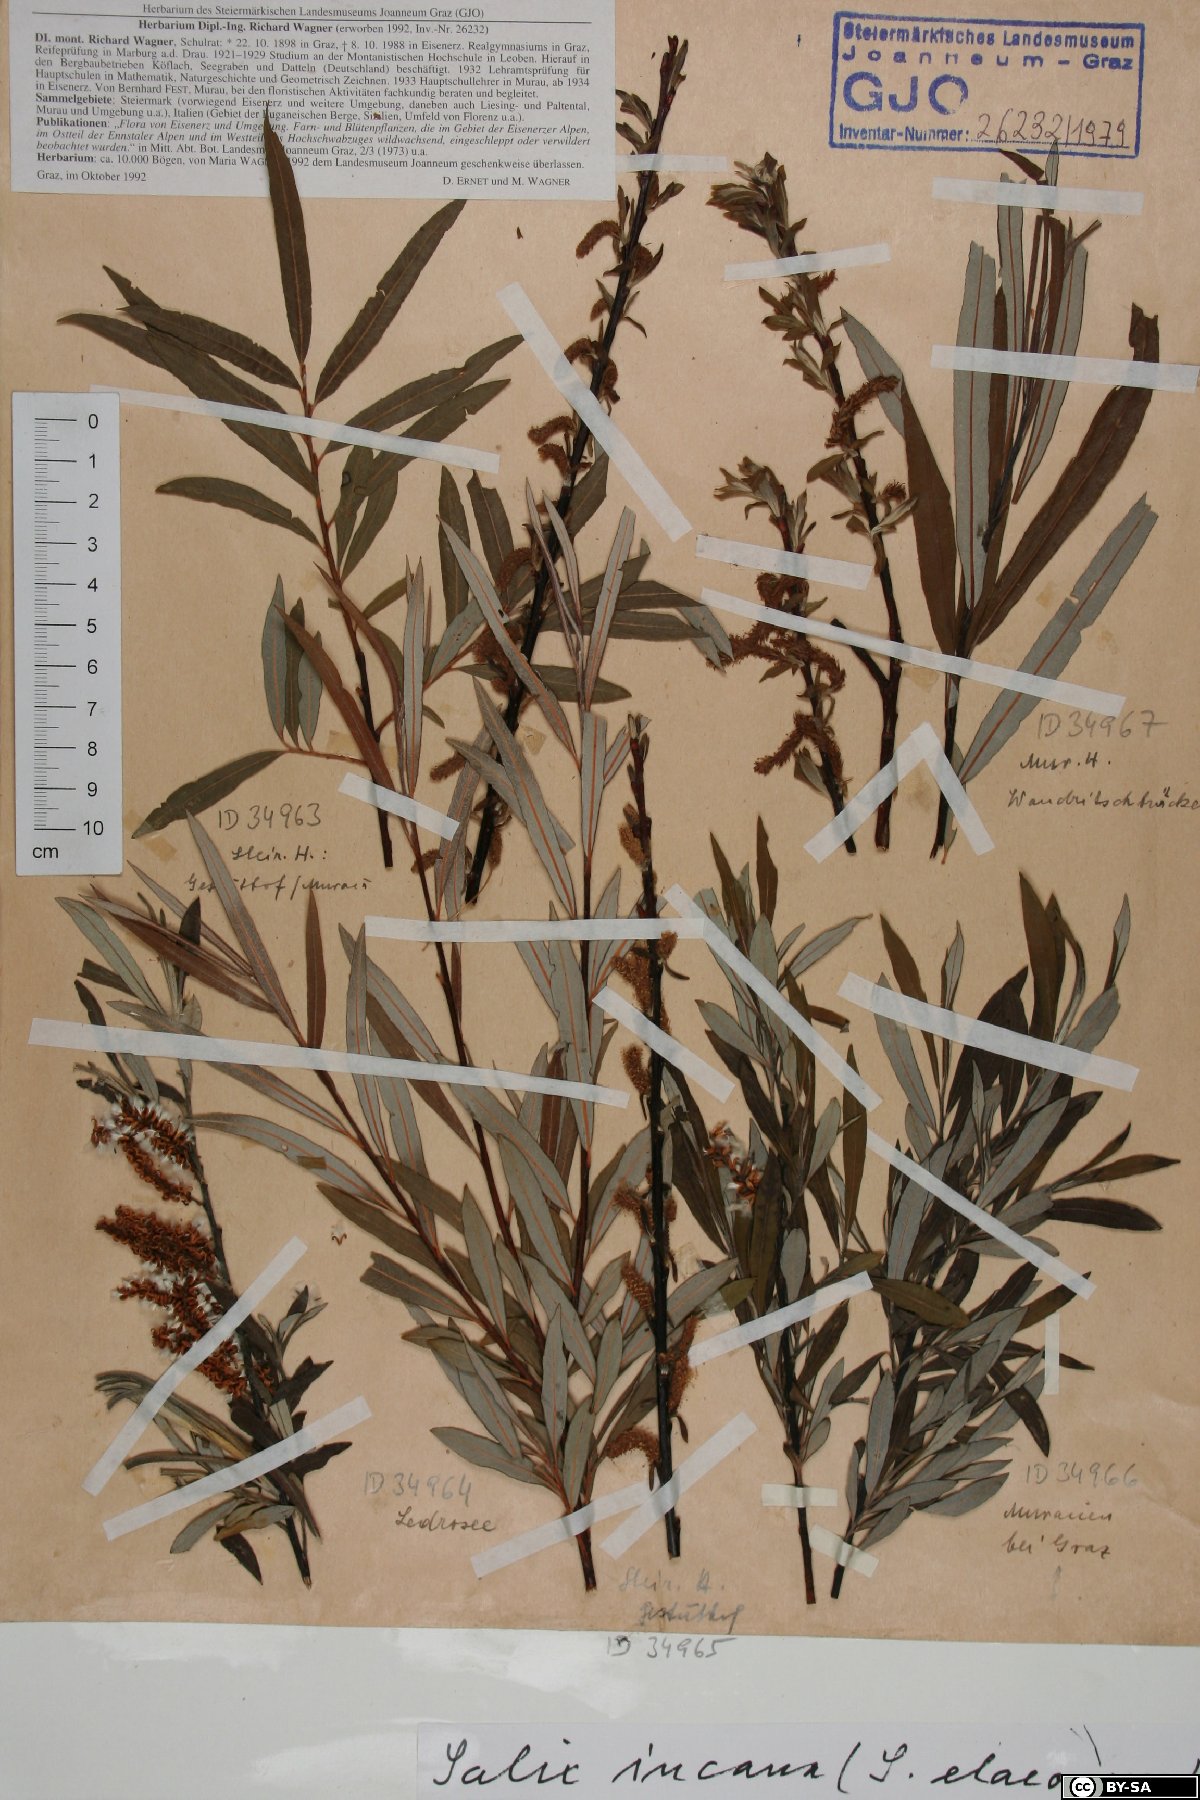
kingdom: Plantae
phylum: Tracheophyta
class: Magnoliopsida
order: Malpighiales
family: Salicaceae
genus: Salix
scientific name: Salix eleagnos
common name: Elaeagnus willow
